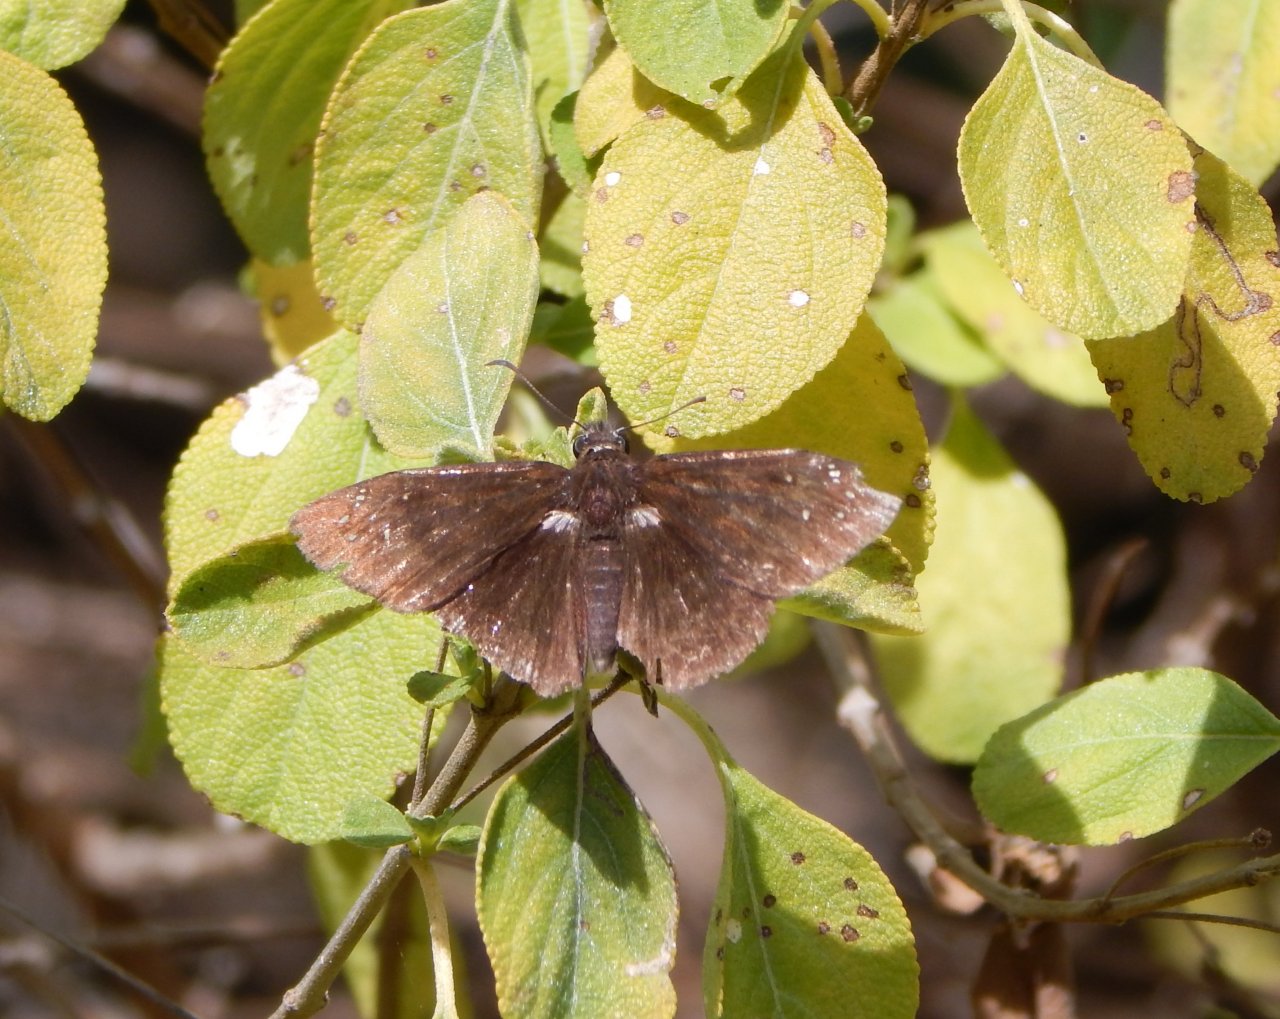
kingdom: Animalia
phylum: Arthropoda
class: Insecta
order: Lepidoptera
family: Hesperiidae
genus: Ephyriades
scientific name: Ephyriades brunnea
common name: Florida Duskywing
